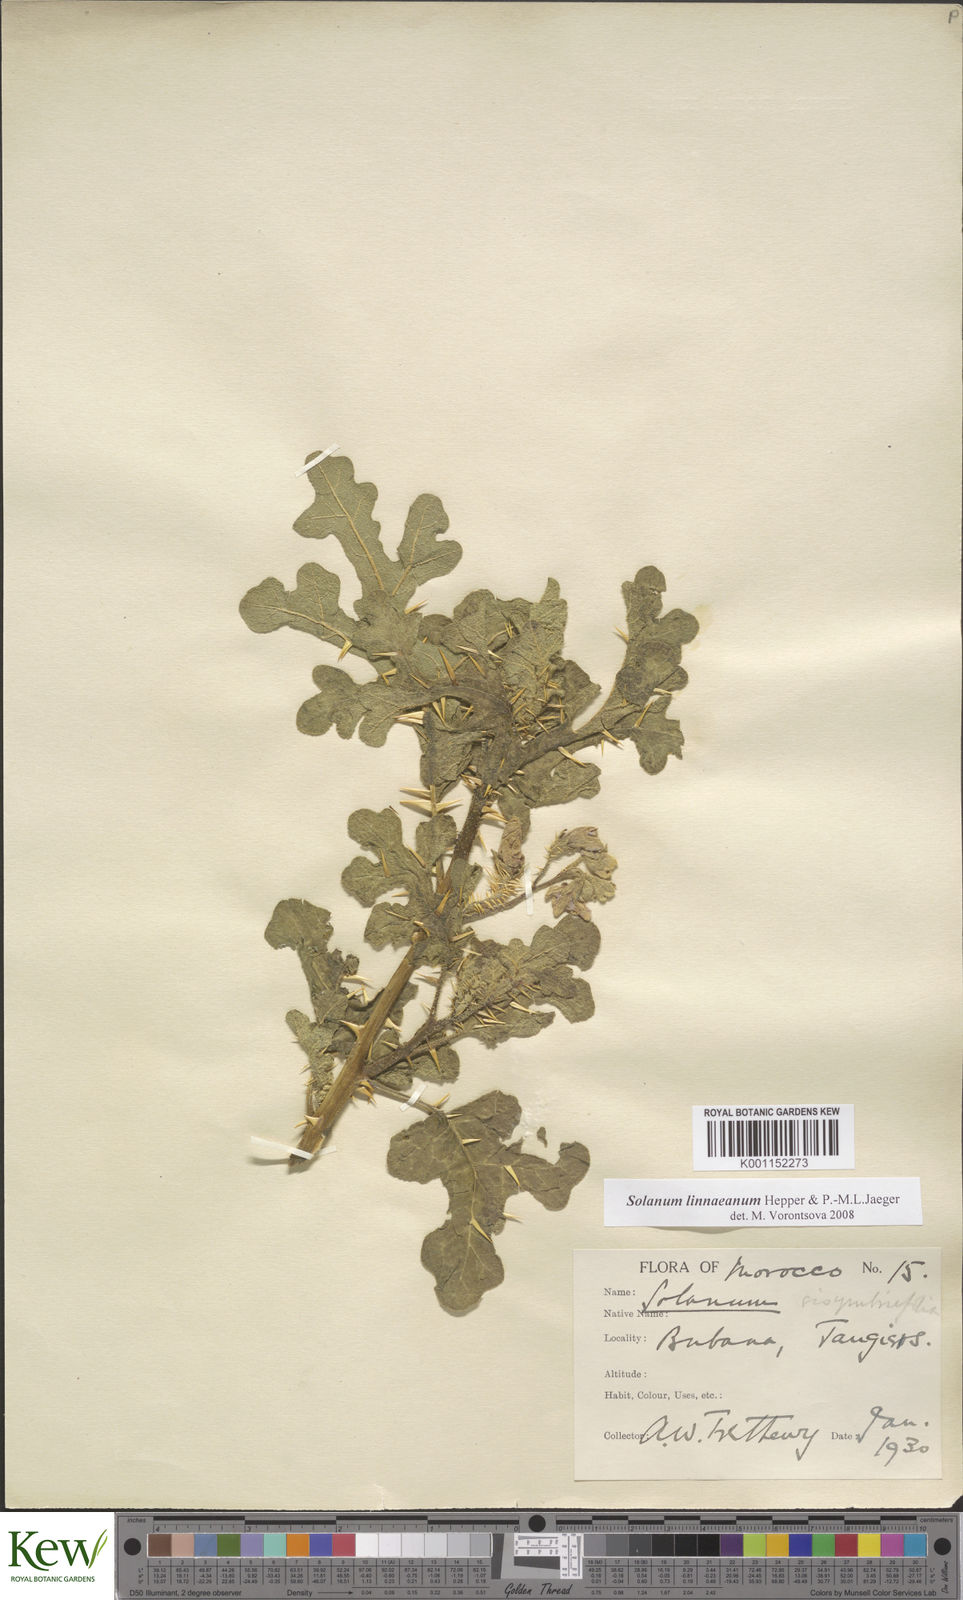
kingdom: Plantae
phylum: Tracheophyta
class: Magnoliopsida
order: Solanales
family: Solanaceae
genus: Solanum
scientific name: Solanum linnaeanum
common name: Nightshade
